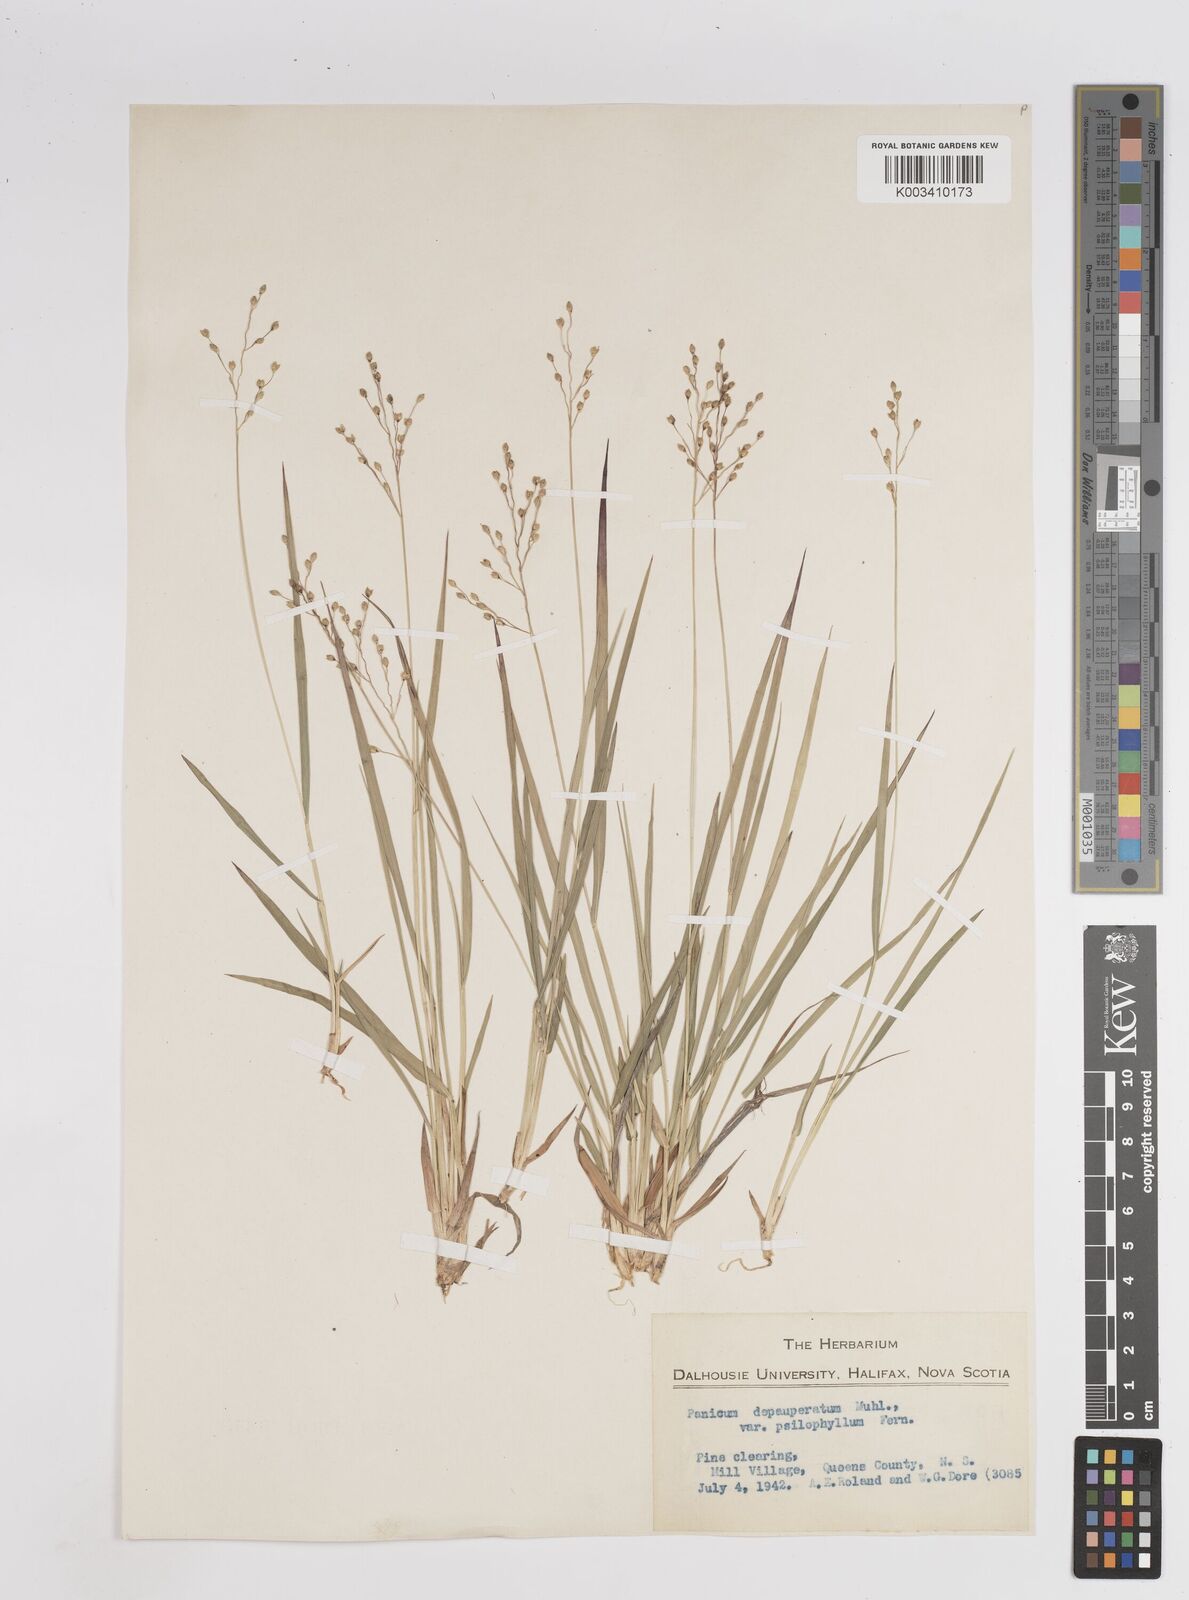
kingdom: Plantae
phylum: Tracheophyta
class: Liliopsida
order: Poales
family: Poaceae
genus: Dichanthelium
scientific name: Dichanthelium depauperatum
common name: Depauperate panicgrass
